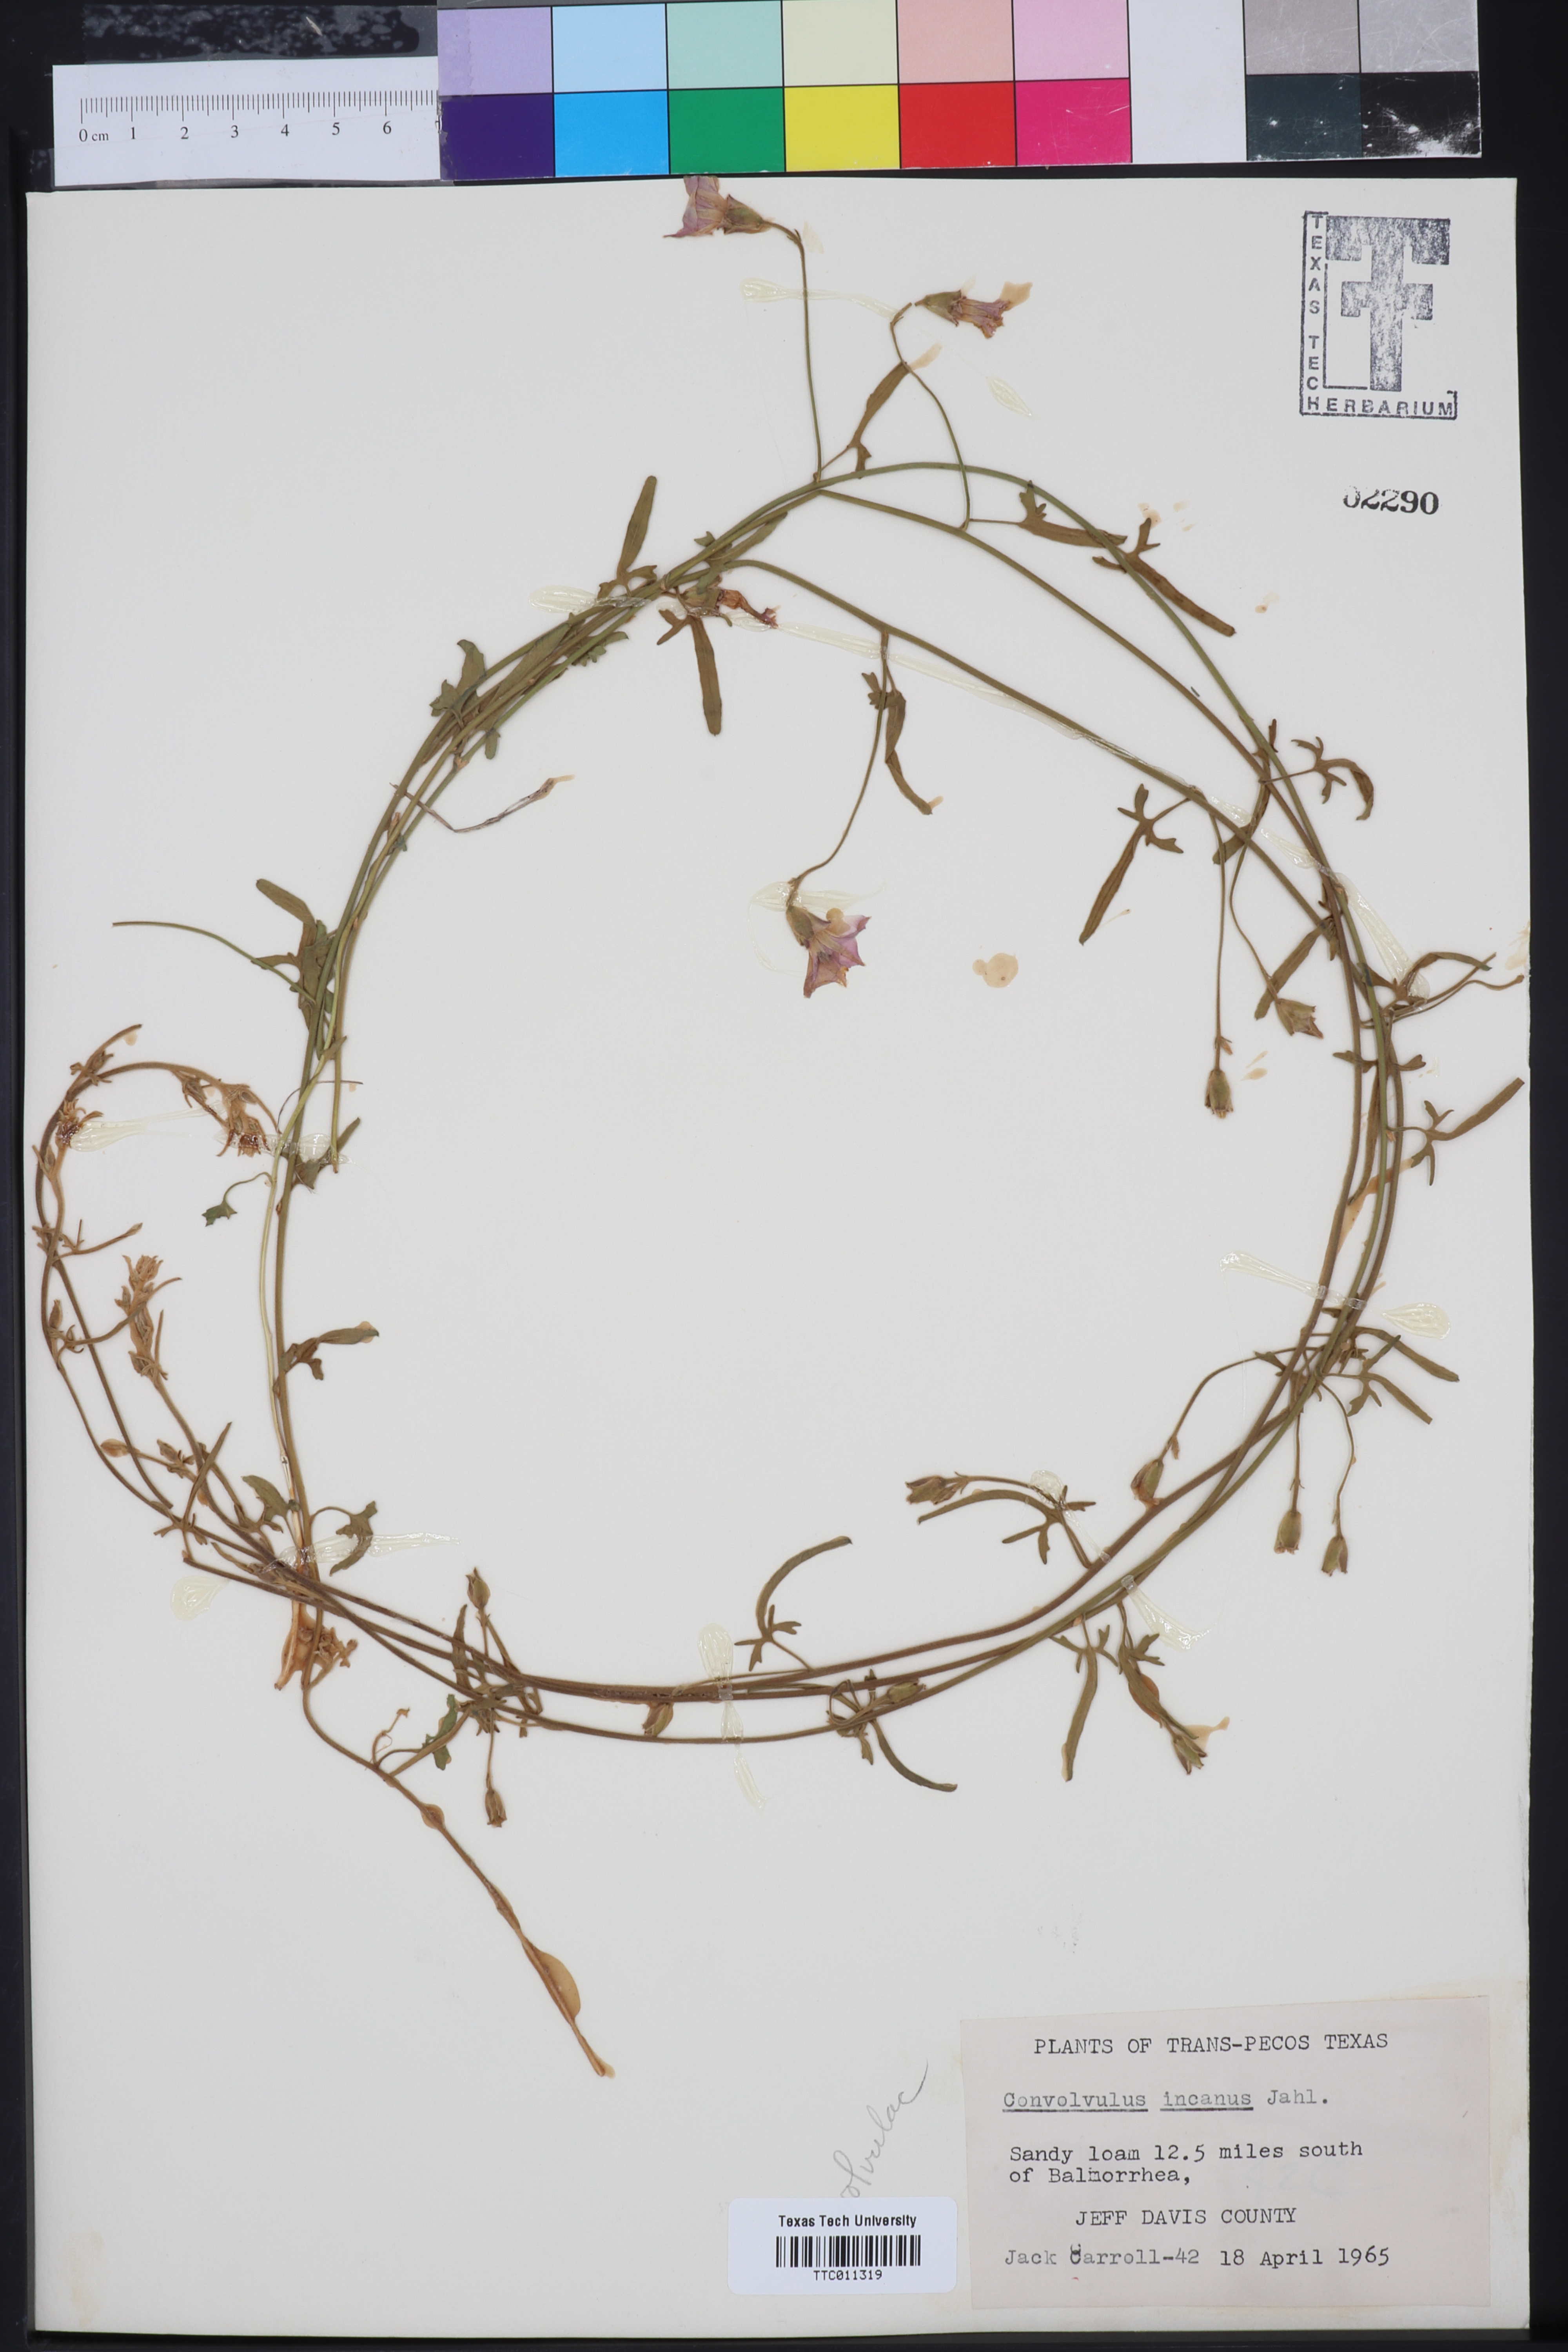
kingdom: Plantae
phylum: Tracheophyta
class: Magnoliopsida
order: Solanales
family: Convolvulaceae
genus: Convolvulus
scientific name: Convolvulus hermanniae
